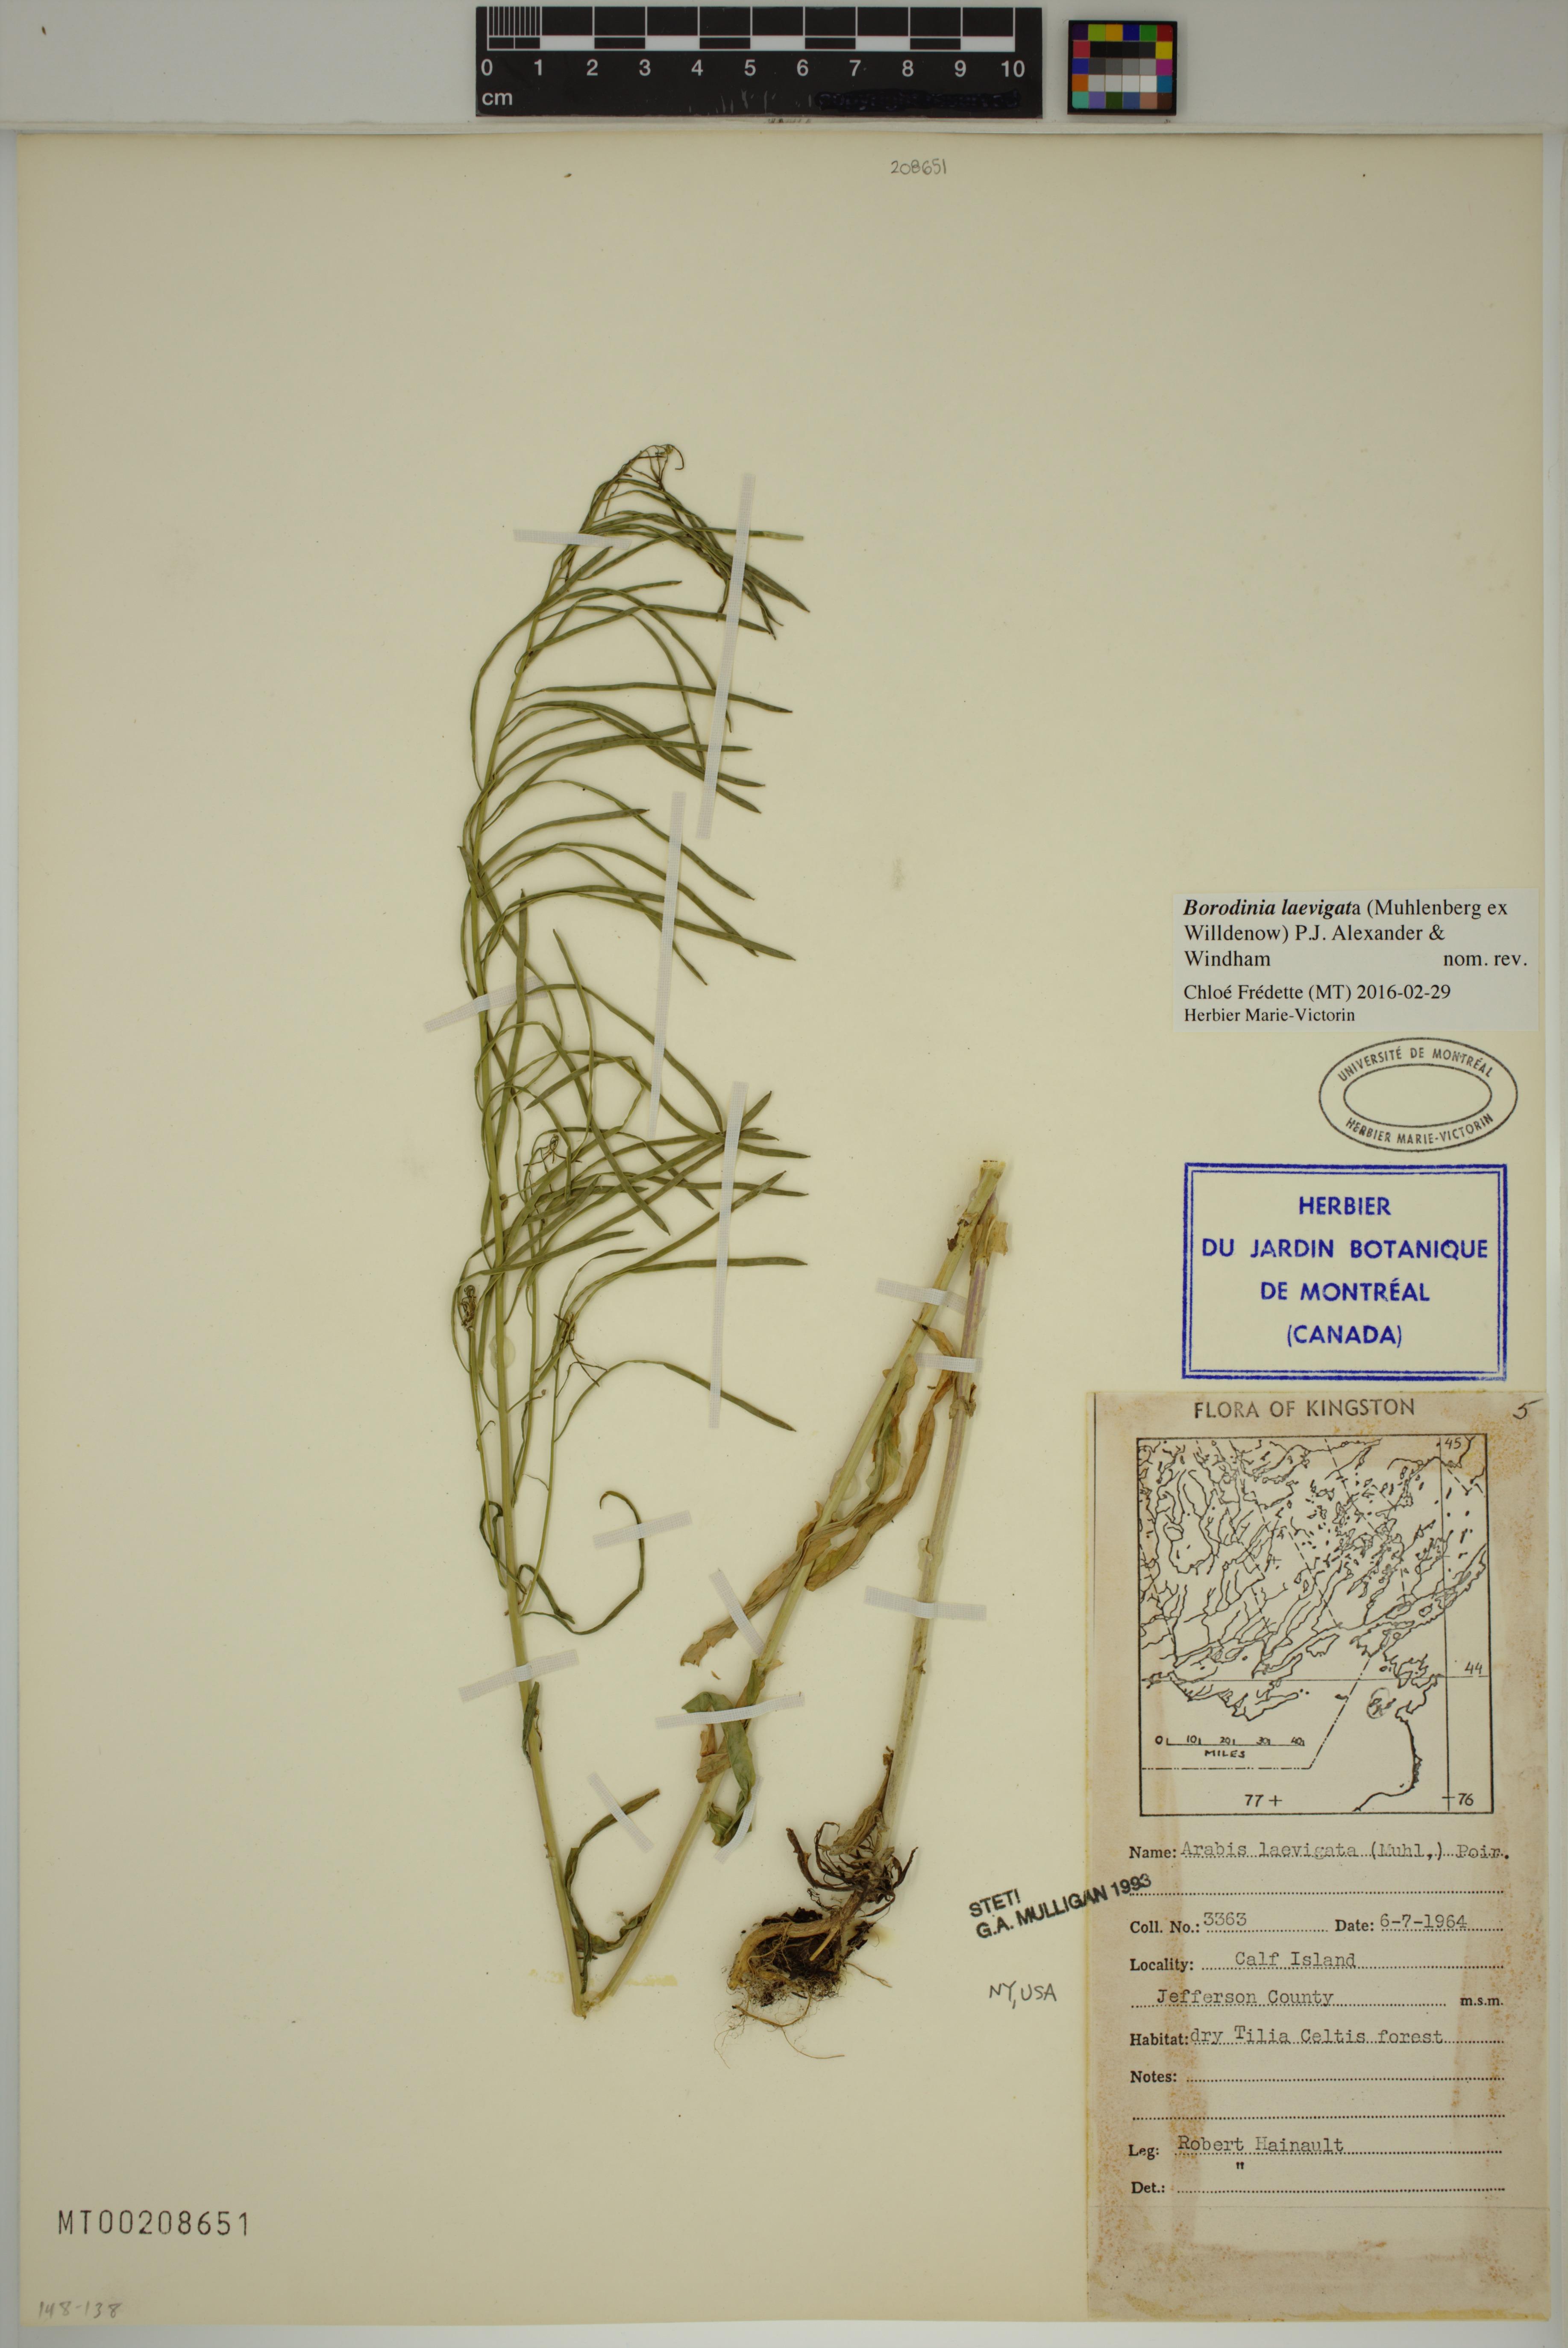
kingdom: Plantae
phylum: Tracheophyta
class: Magnoliopsida
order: Brassicales
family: Brassicaceae
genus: Borodinia
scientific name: Borodinia laevigata
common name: Smooth rockcress
